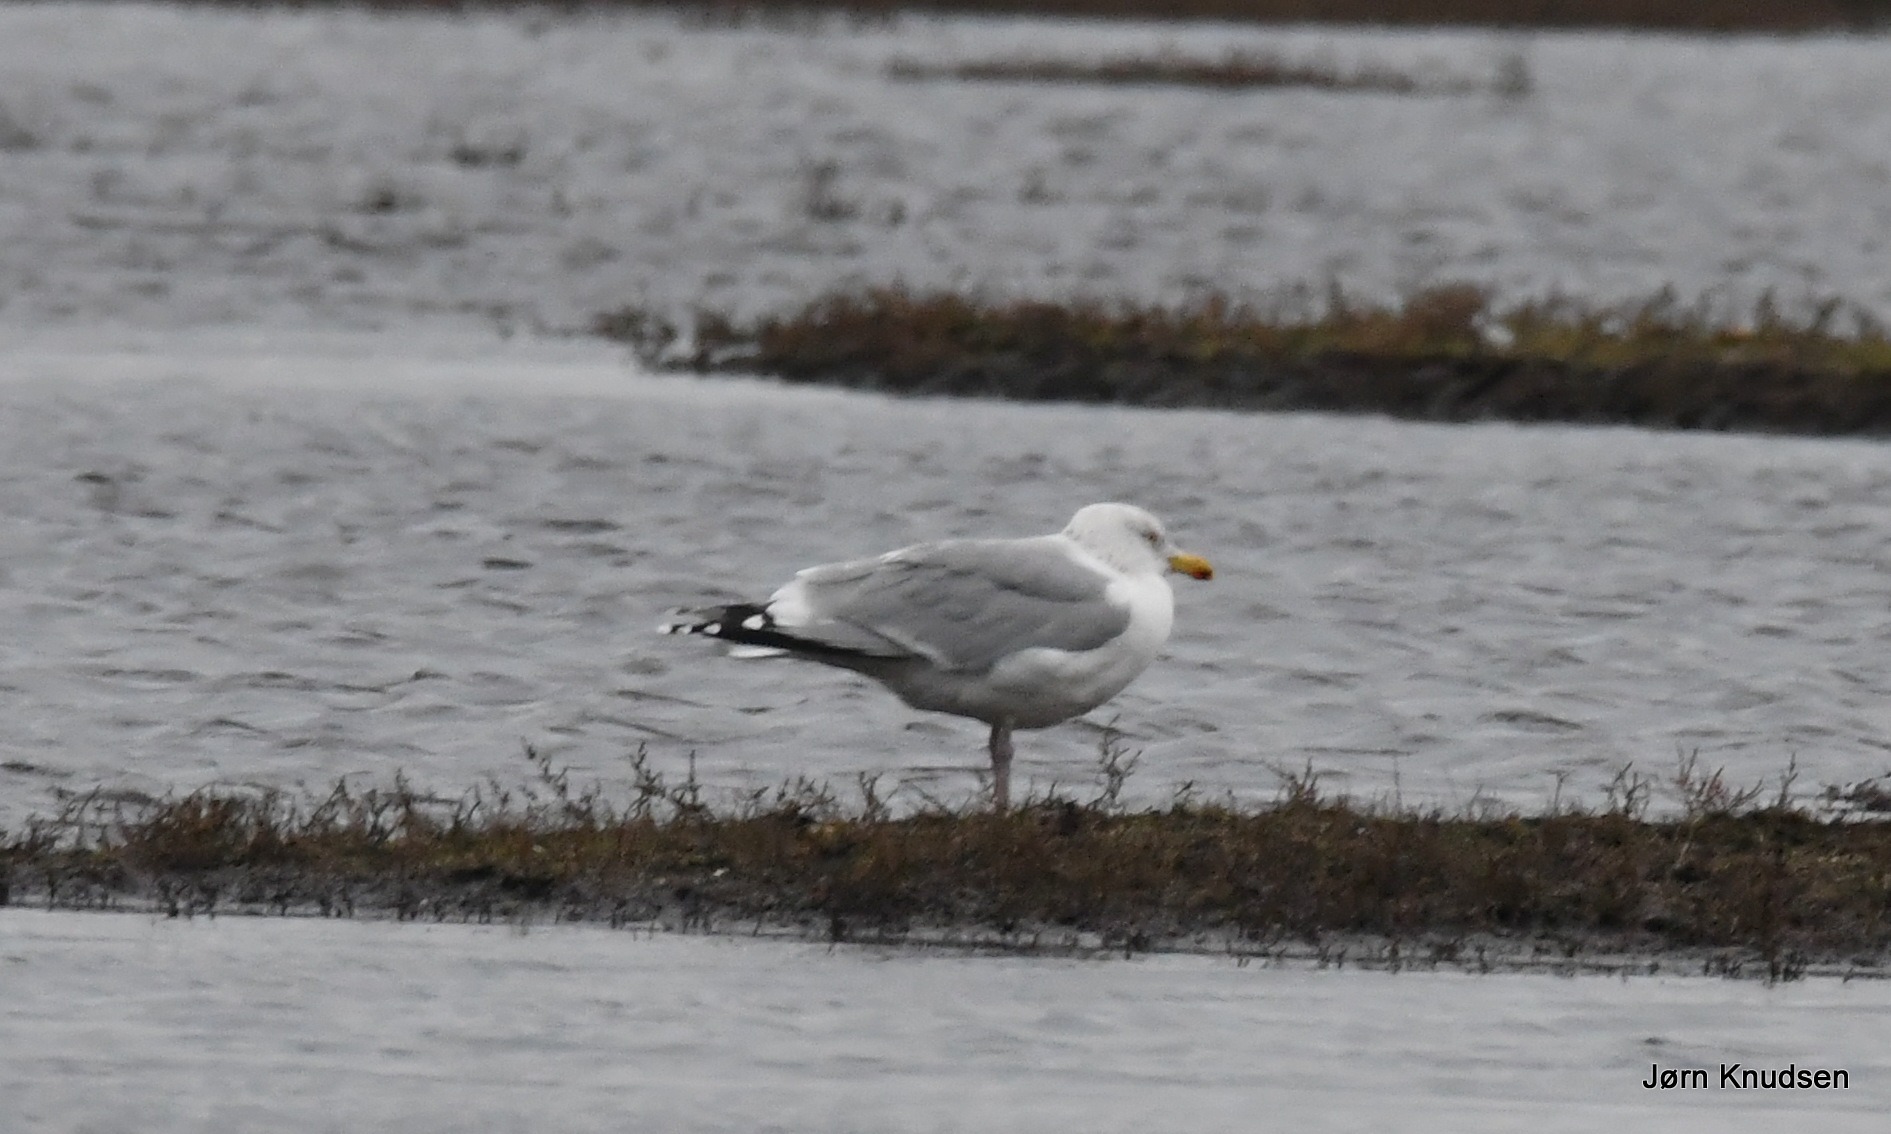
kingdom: Animalia
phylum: Chordata
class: Aves
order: Charadriiformes
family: Laridae
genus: Larus
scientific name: Larus argentatus
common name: Sølvmåge
